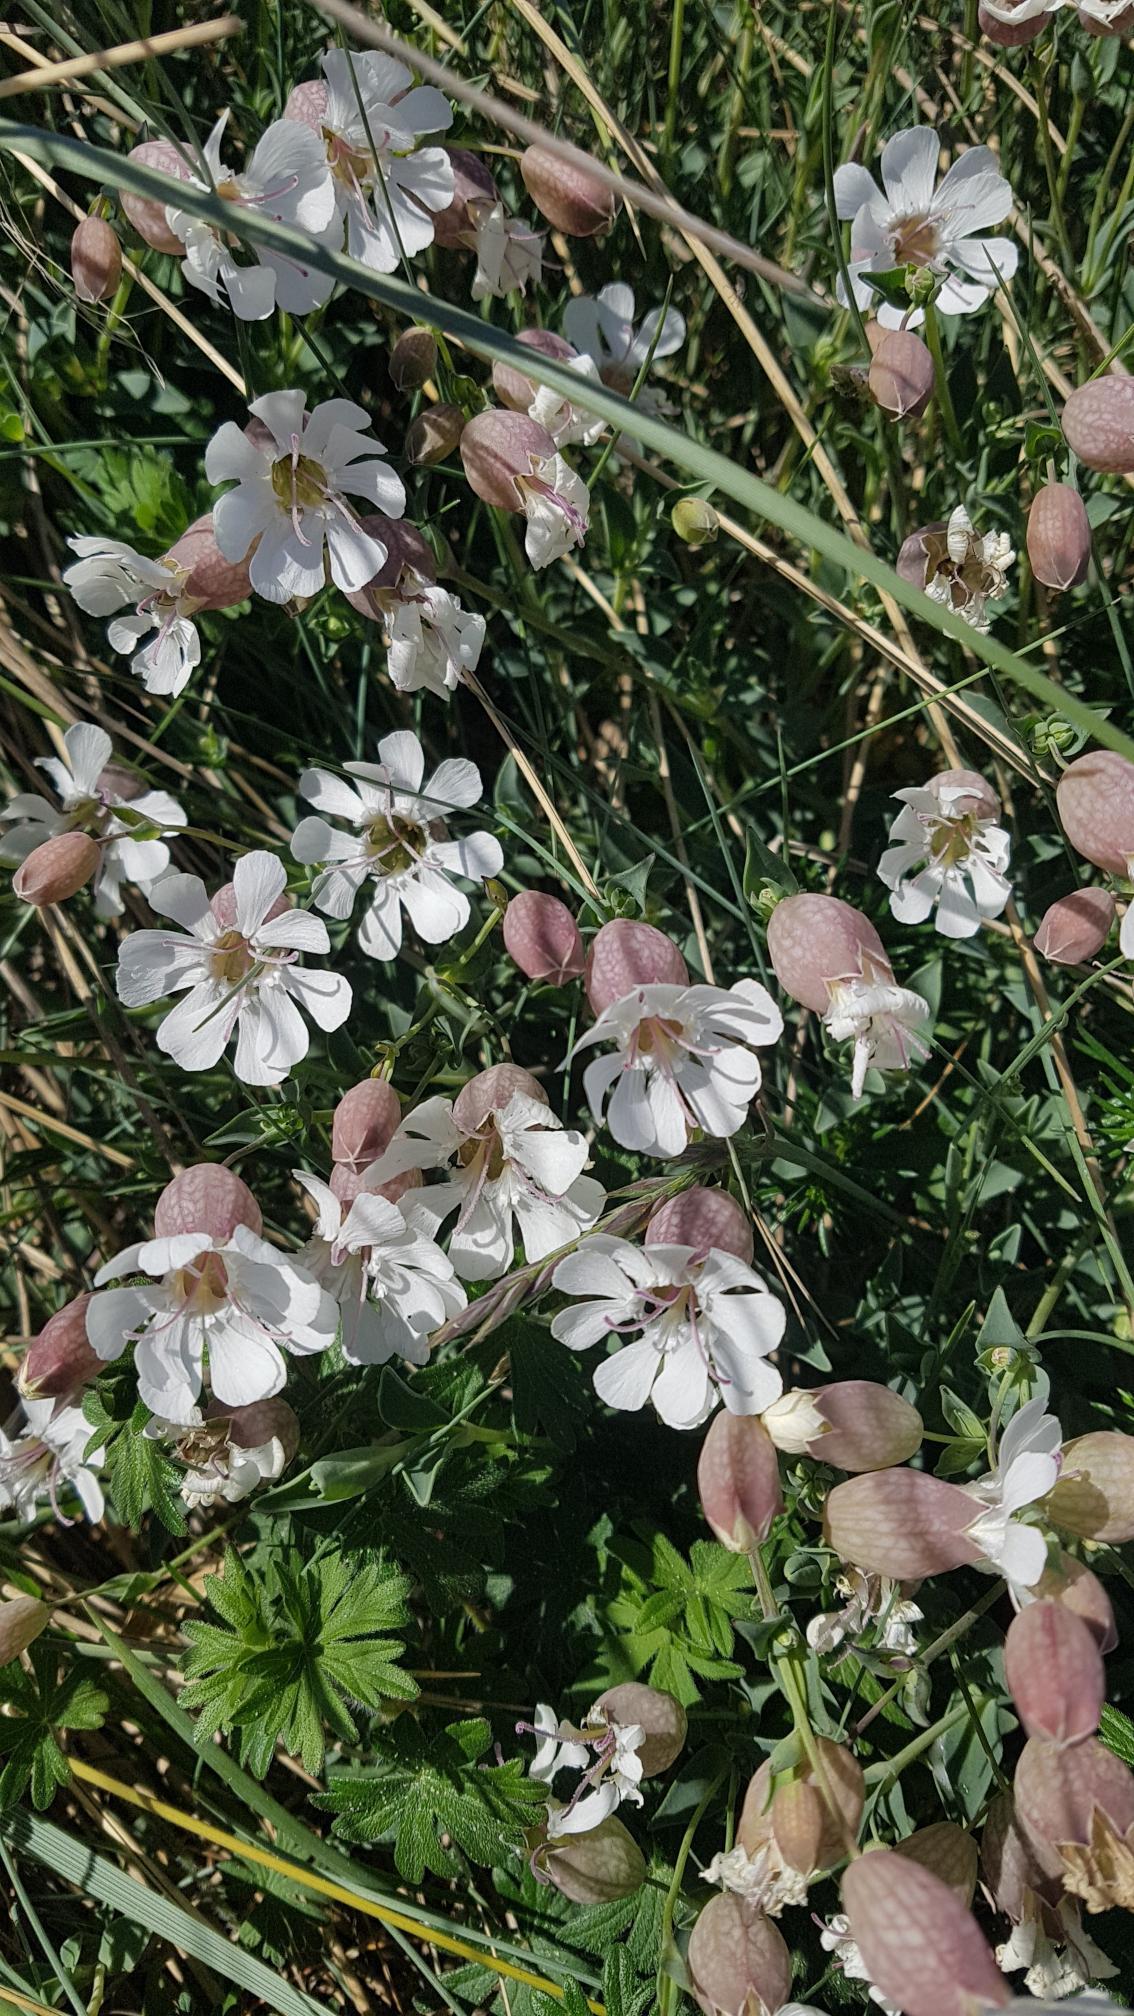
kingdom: Plantae
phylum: Tracheophyta
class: Magnoliopsida
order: Caryophyllales
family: Caryophyllaceae
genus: Silene
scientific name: Silene uniflora
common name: Strand-limurt
